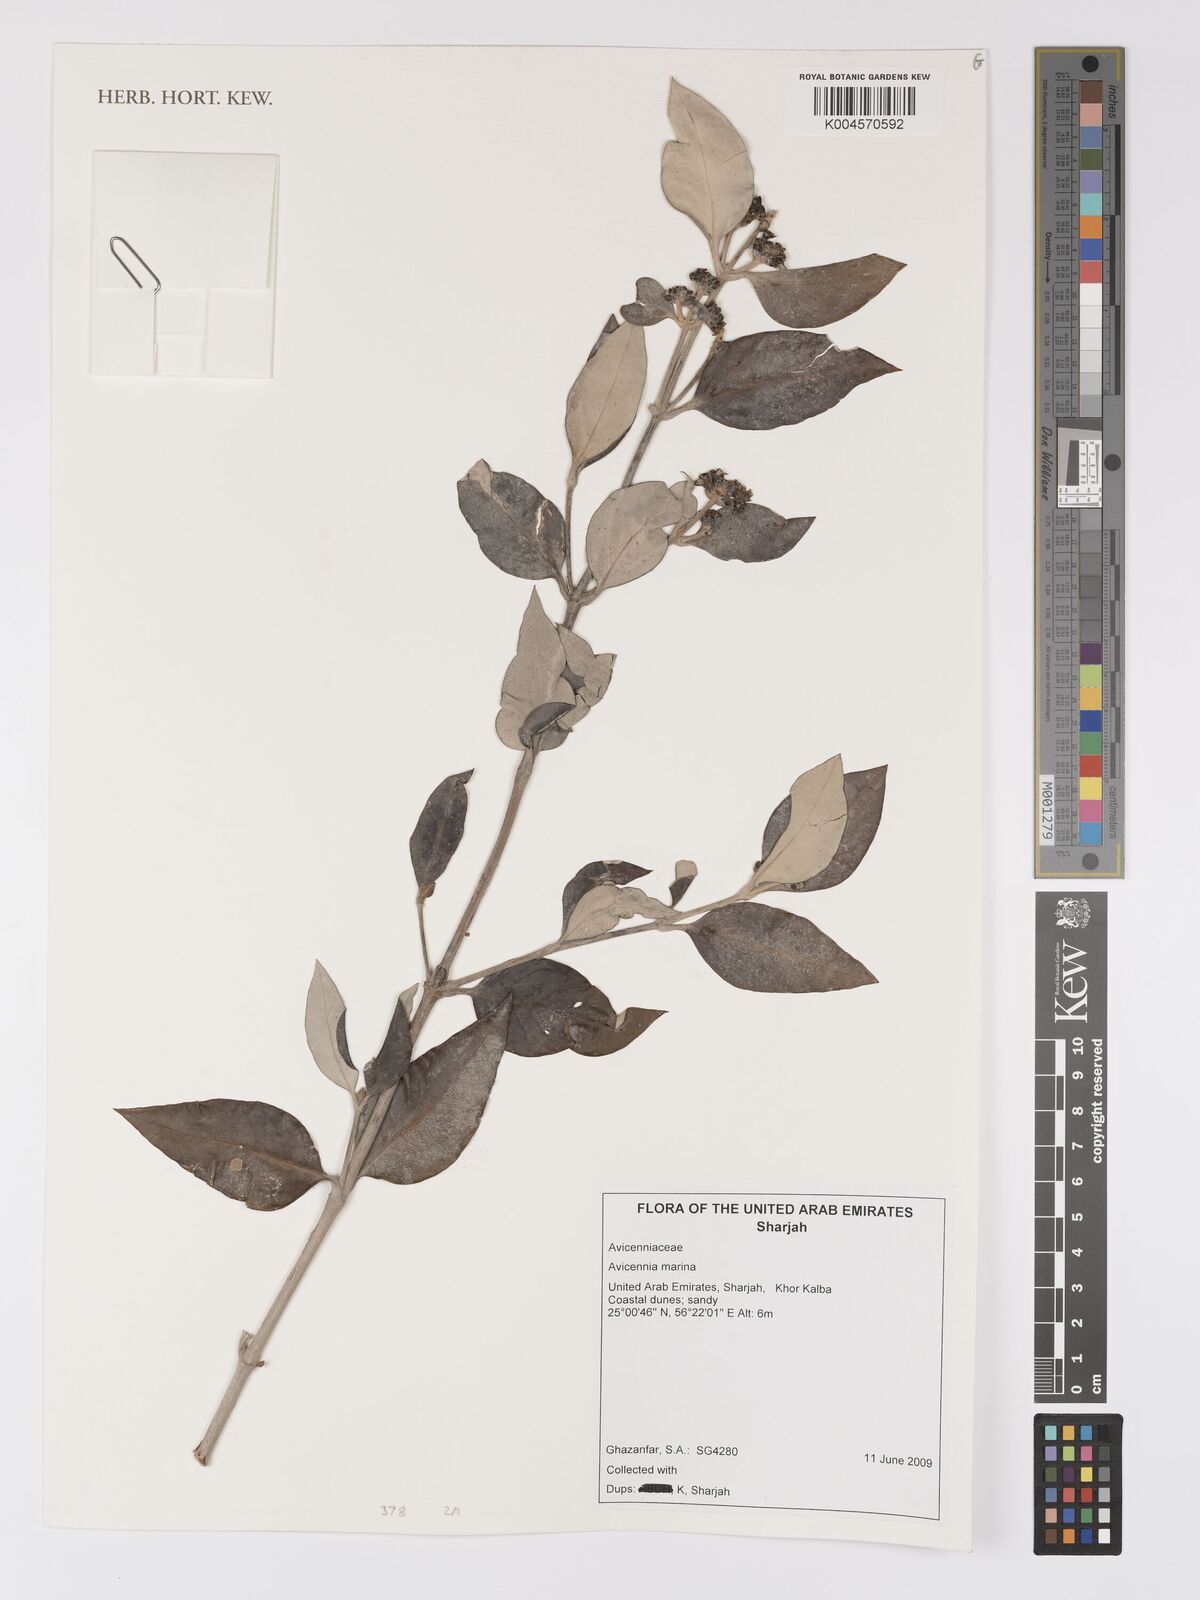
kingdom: Plantae
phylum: Tracheophyta
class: Magnoliopsida
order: Lamiales
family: Acanthaceae
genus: Avicennia
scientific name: Avicennia marina
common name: Gray mangrove
